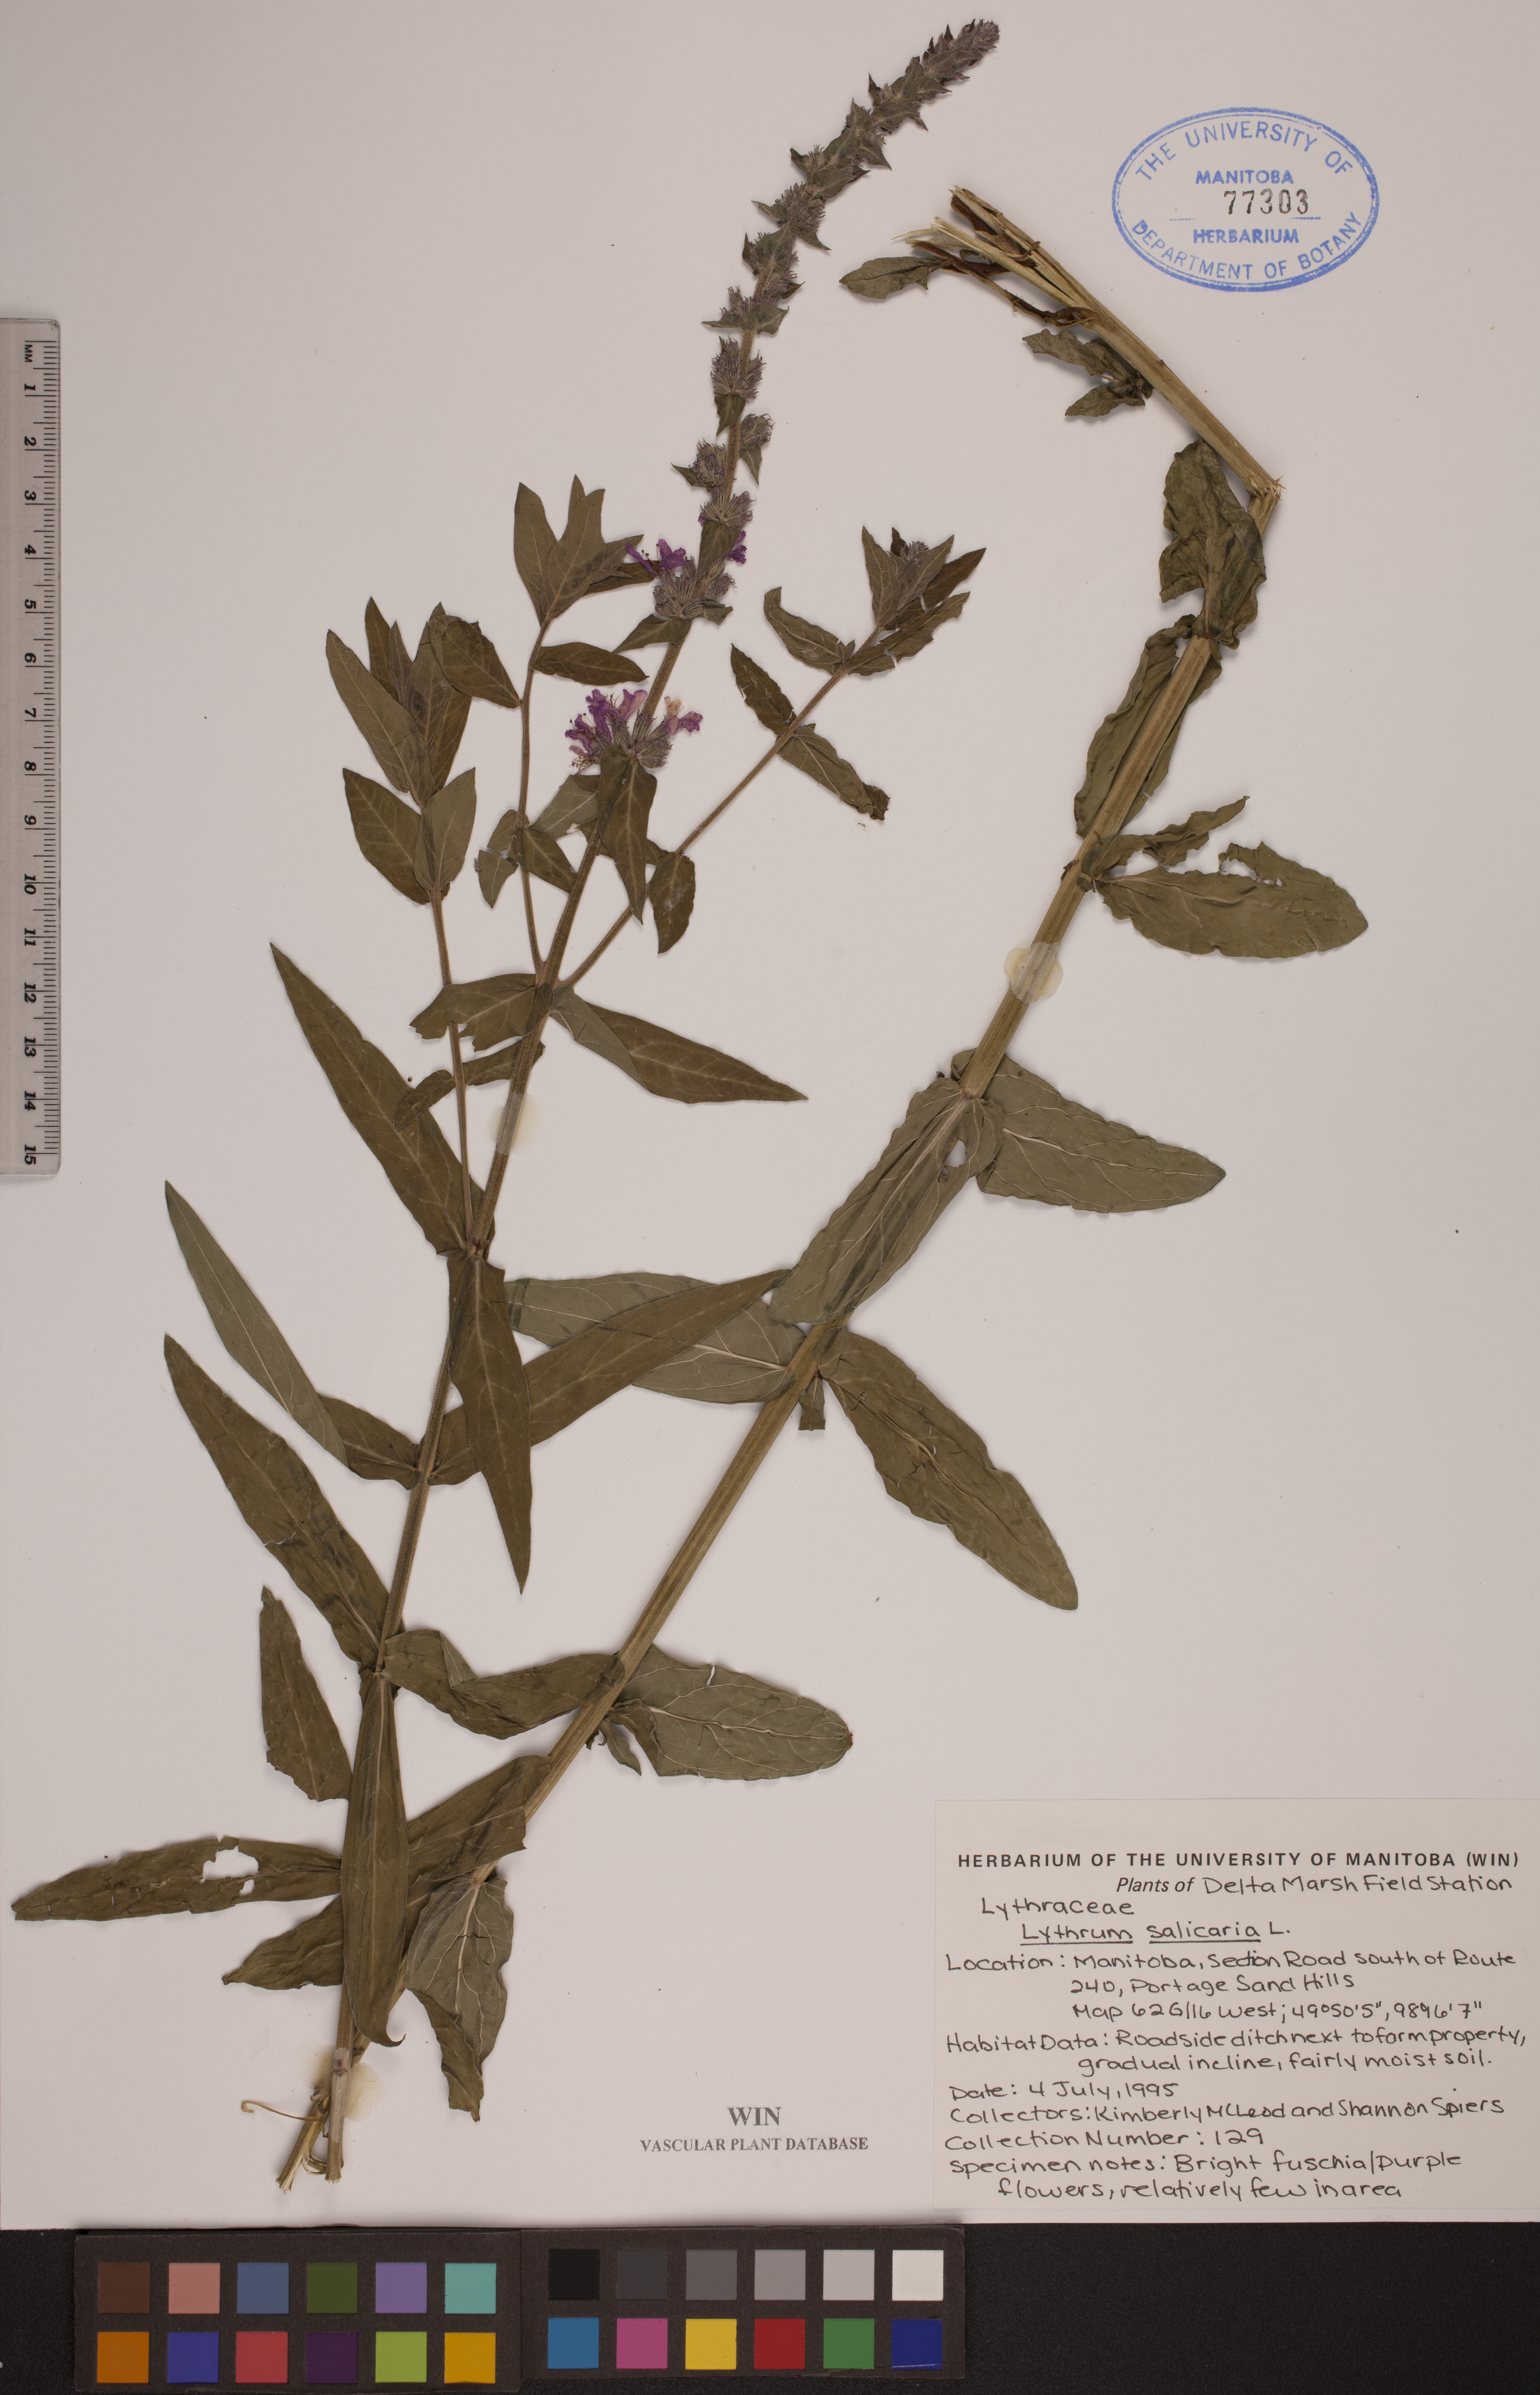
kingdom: Plantae
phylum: Tracheophyta
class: Magnoliopsida
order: Myrtales
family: Lythraceae
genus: Lythrum
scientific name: Lythrum salicaria
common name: Purple loosestrife
